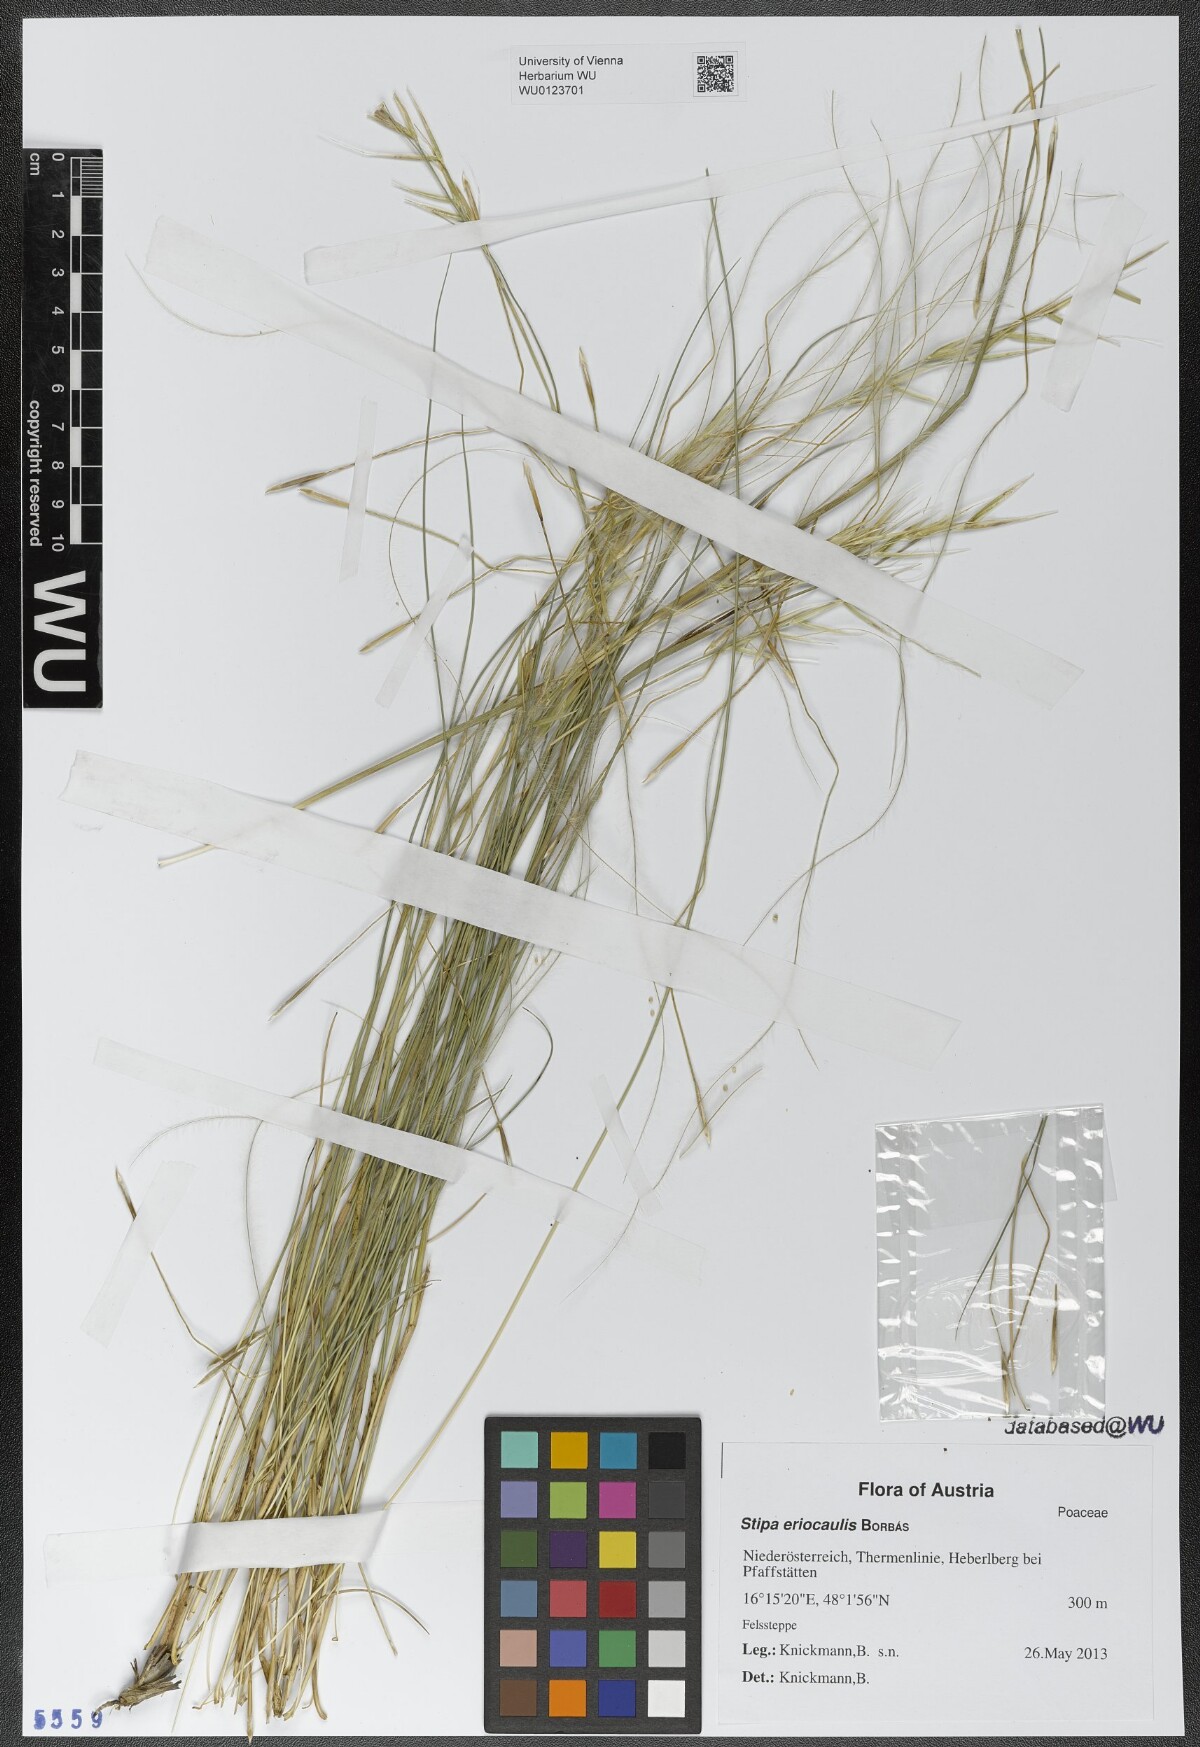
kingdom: Plantae
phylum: Tracheophyta
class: Liliopsida
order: Poales
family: Poaceae
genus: Stipa
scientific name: Stipa pennata
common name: European feather grass
